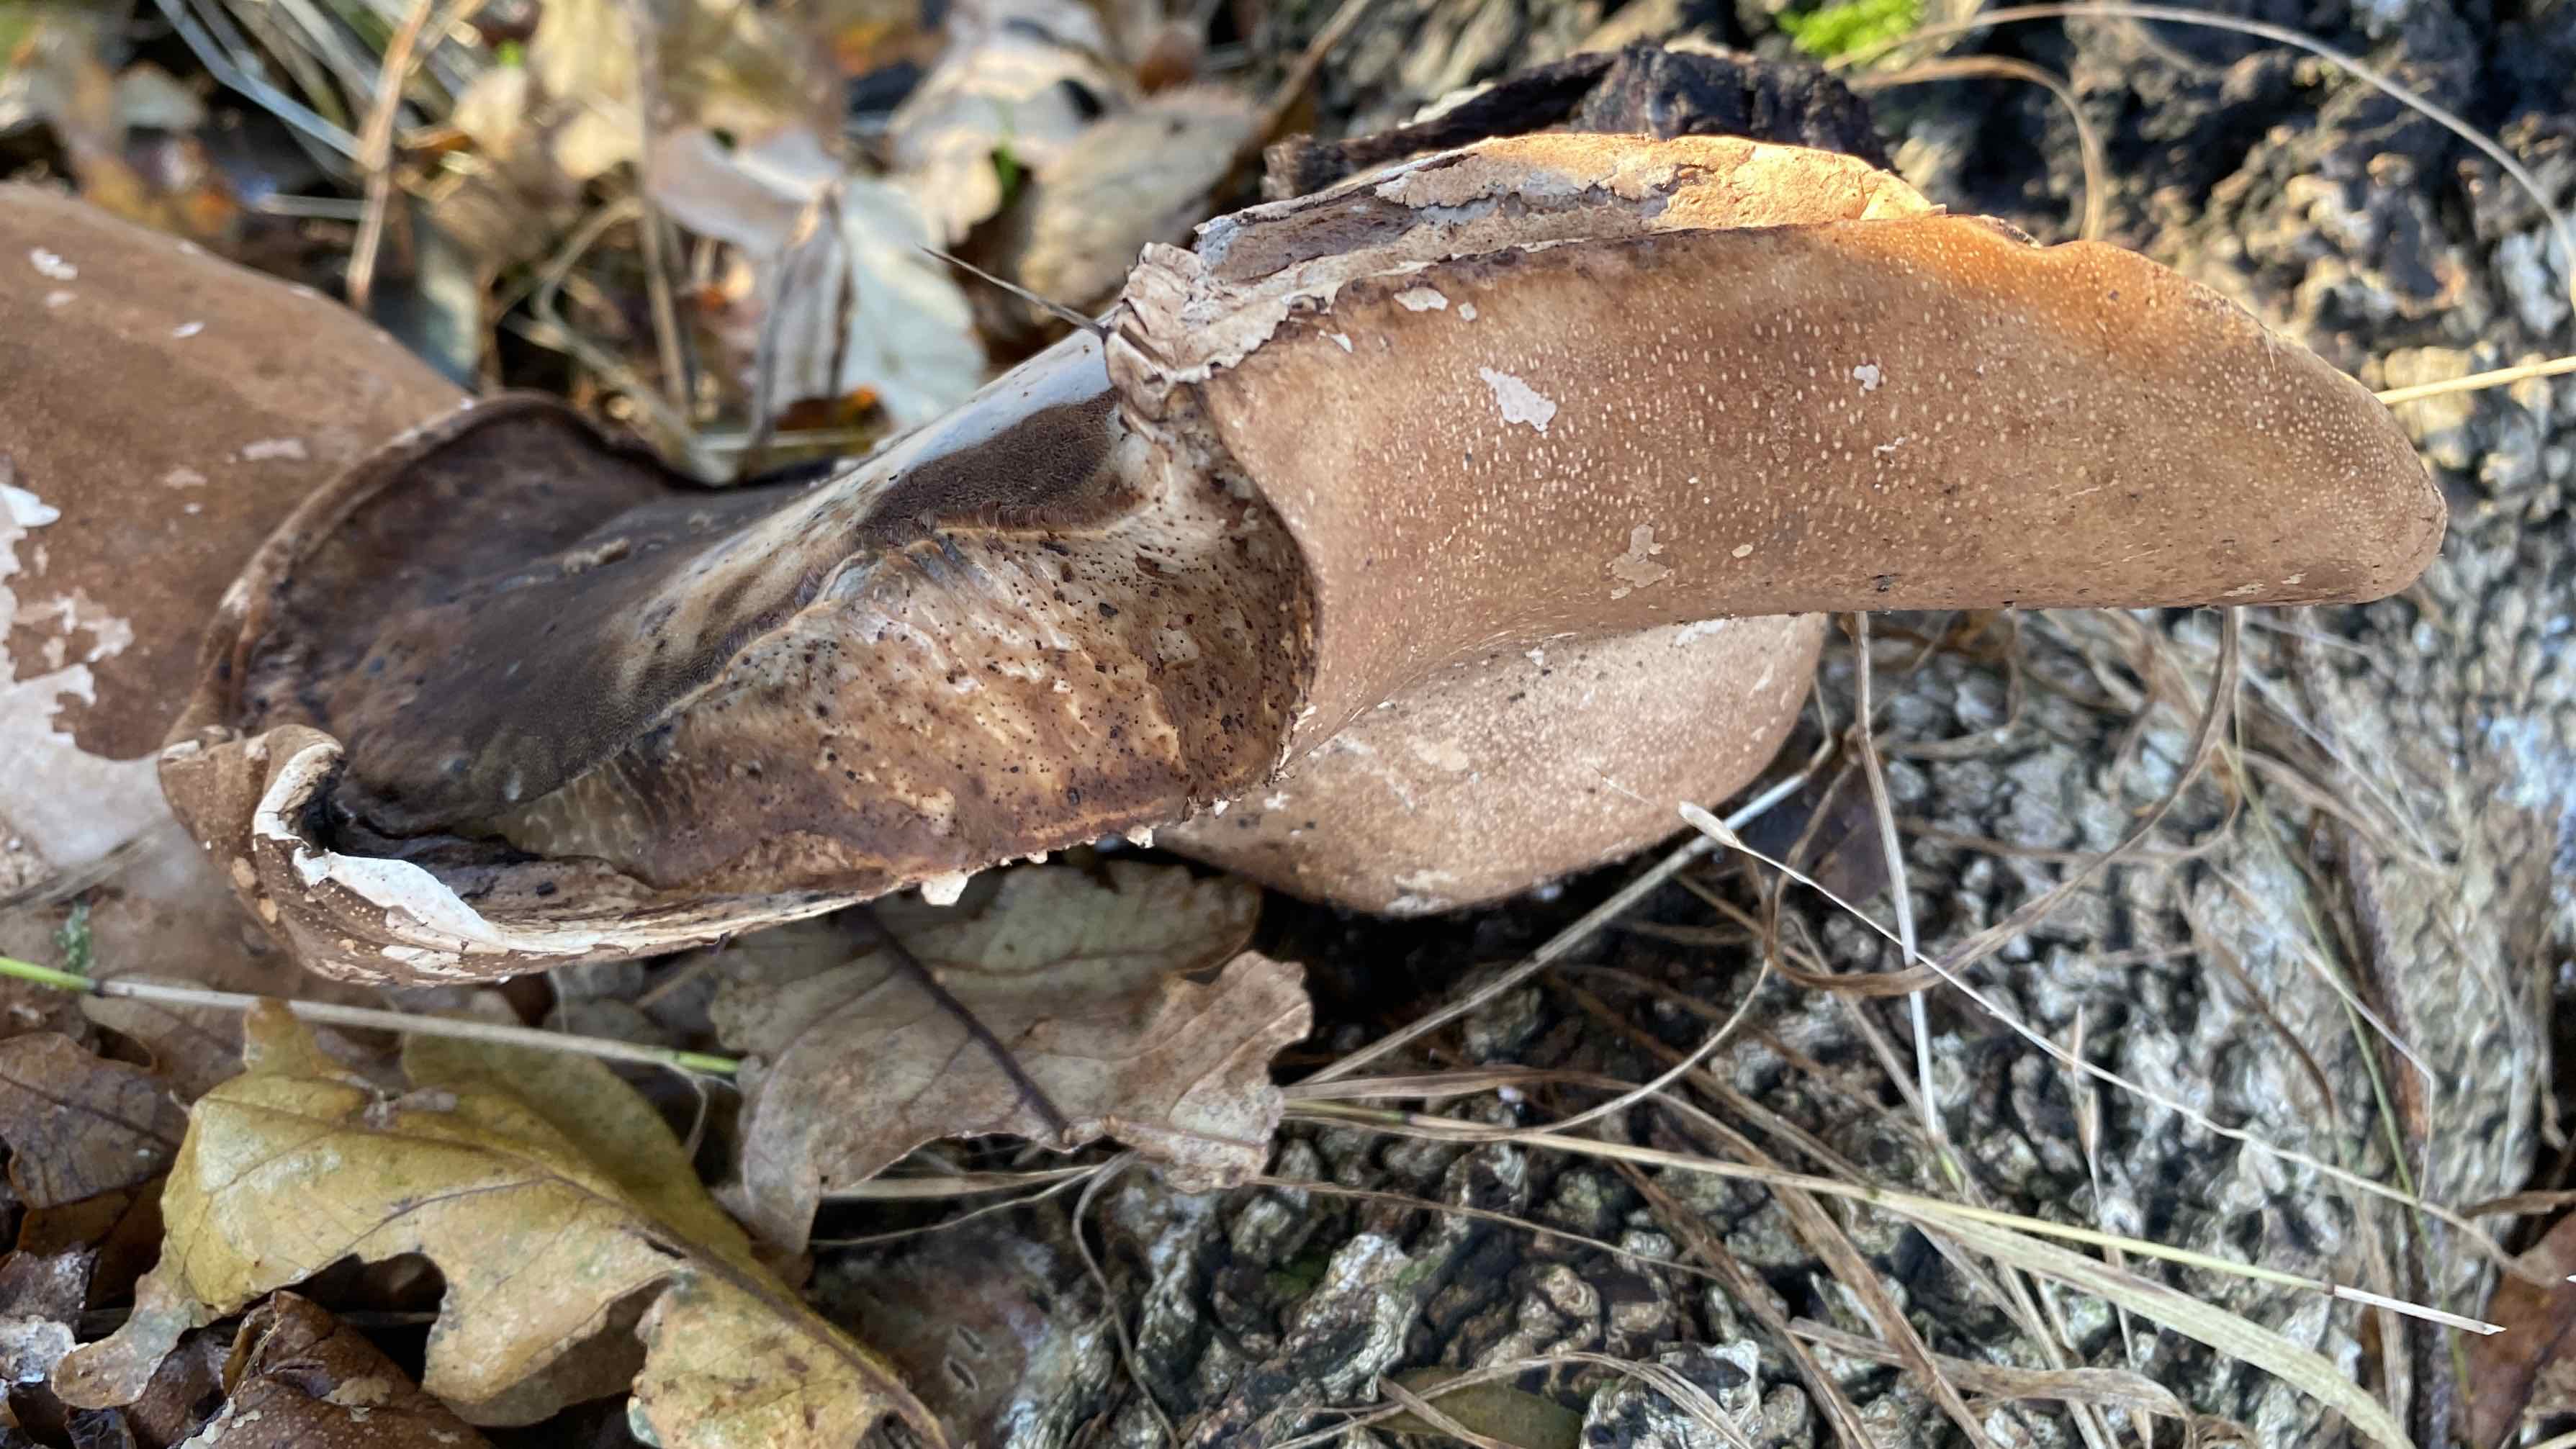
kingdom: Fungi
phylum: Basidiomycota
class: Agaricomycetes
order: Polyporales
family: Fomitopsidaceae
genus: Fomitopsis
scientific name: Fomitopsis betulina
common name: birkeporesvamp
